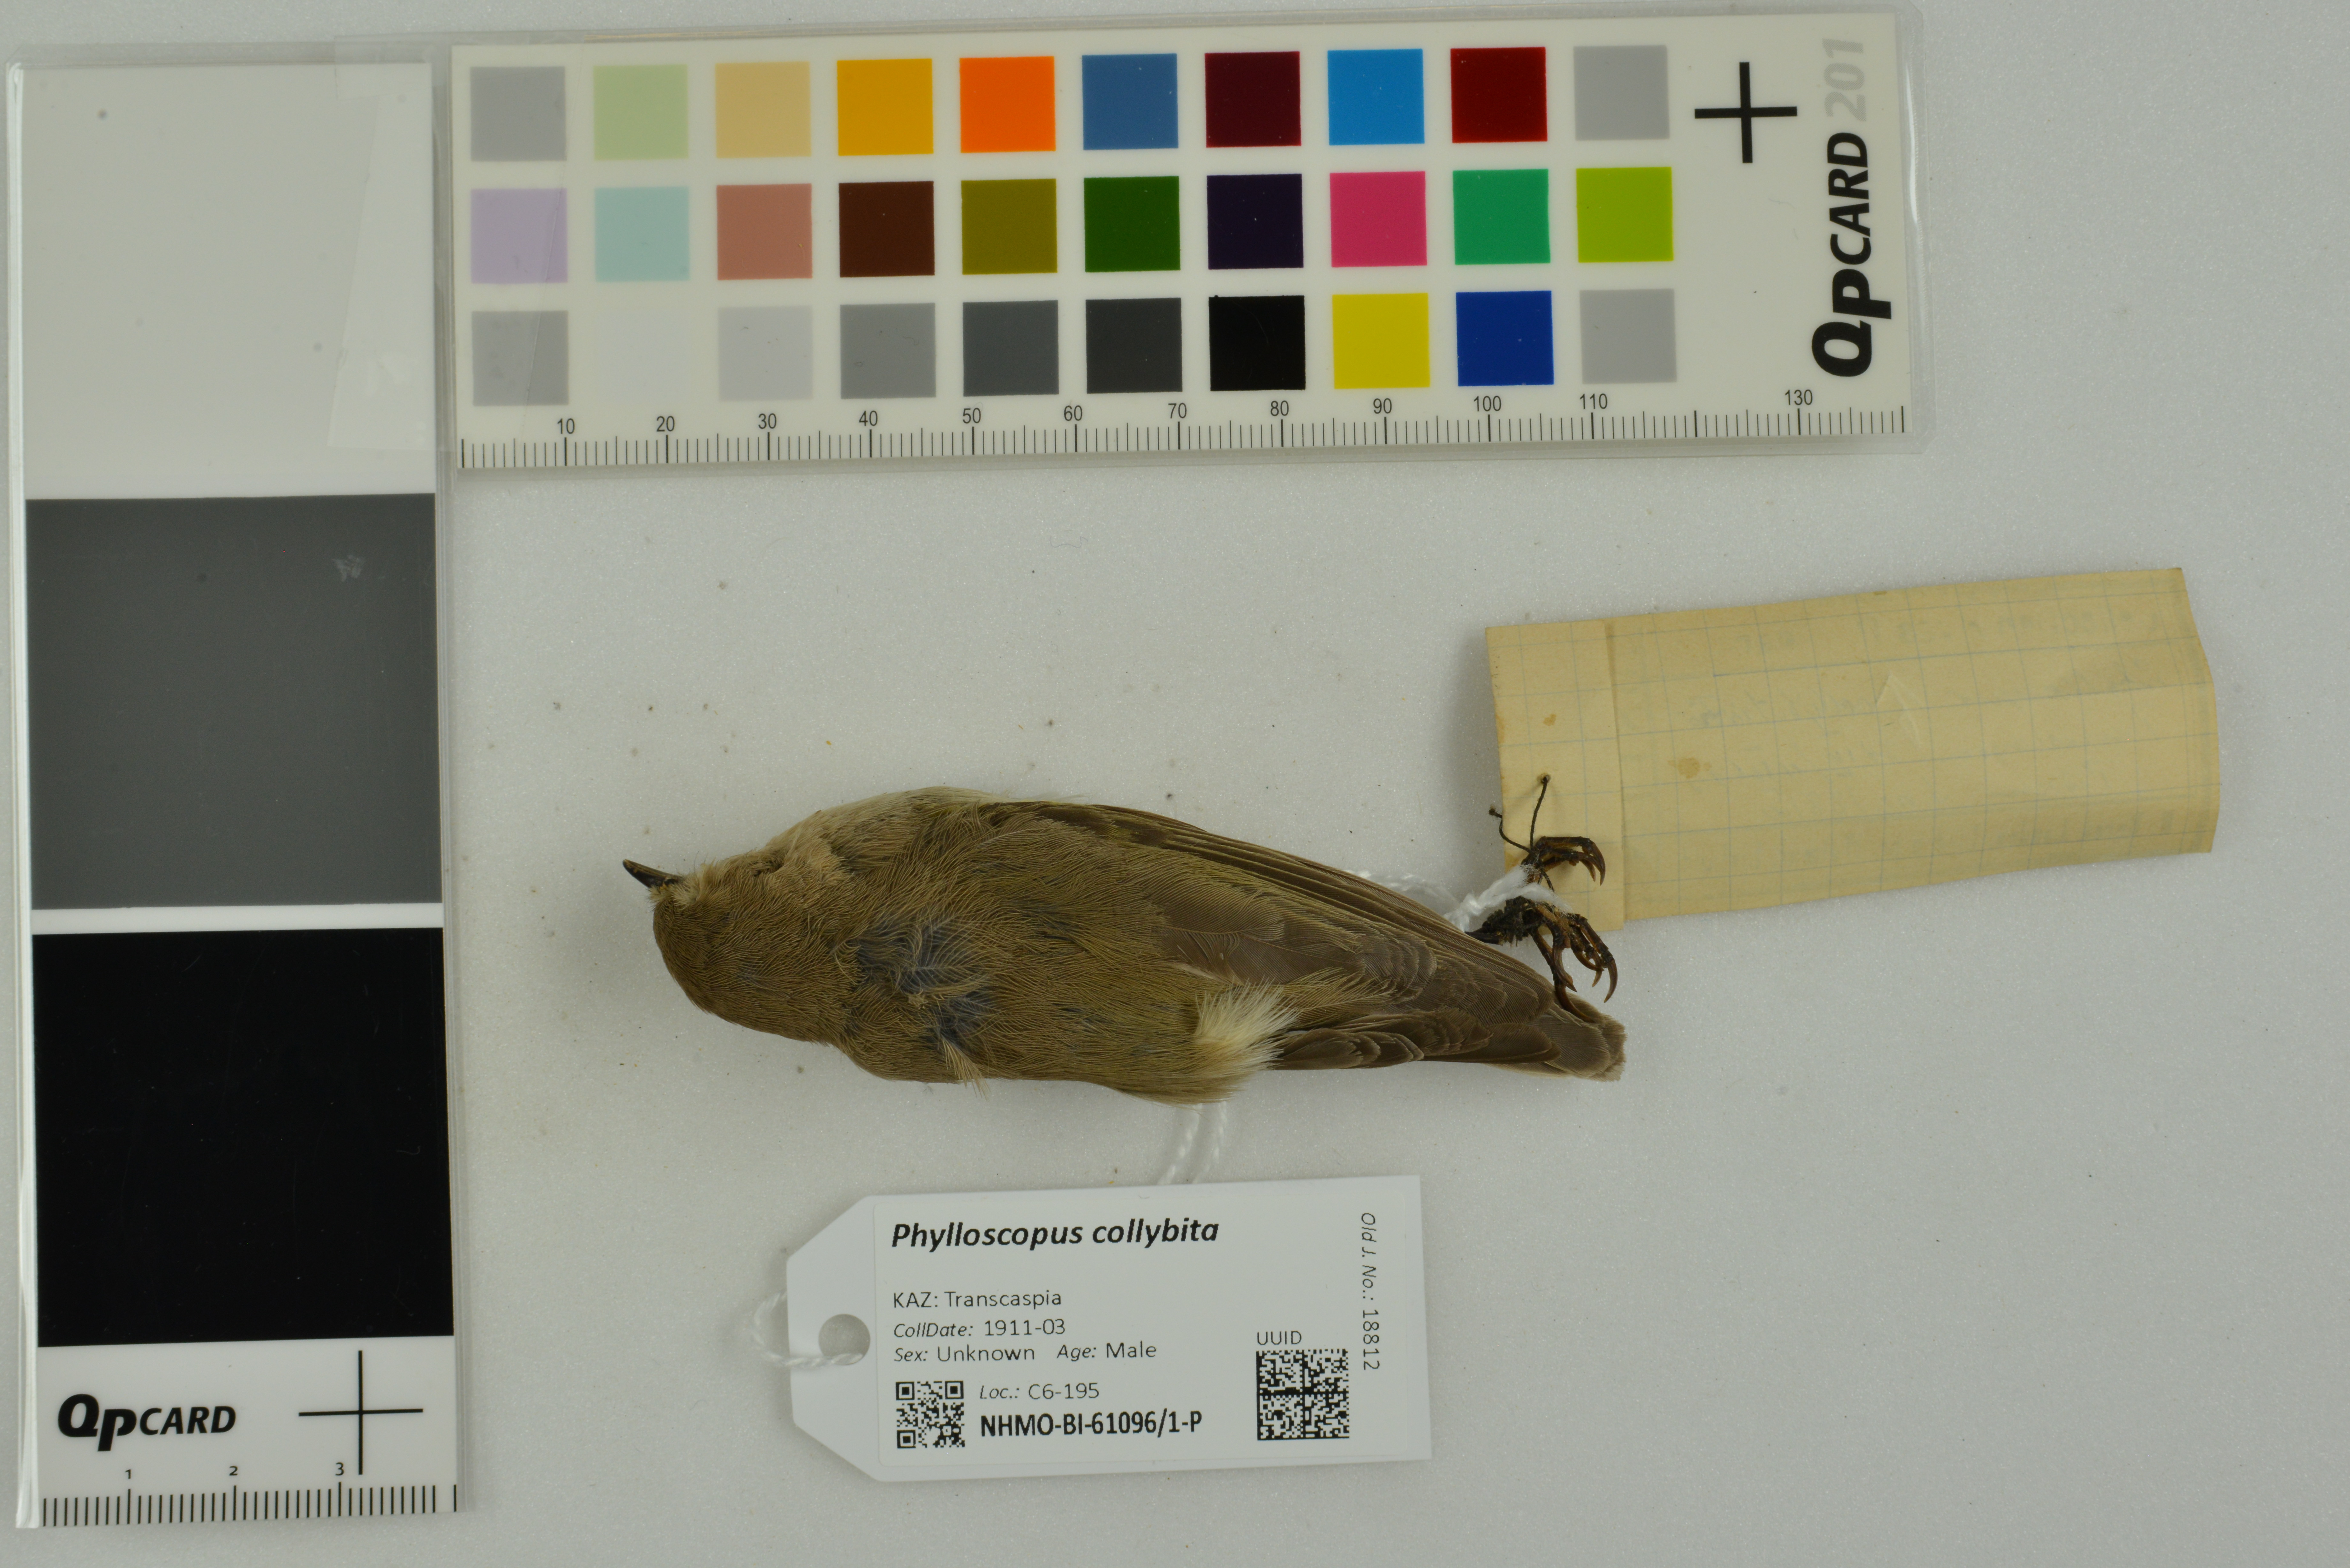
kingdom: Animalia
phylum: Chordata
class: Aves
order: Passeriformes
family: Phylloscopidae
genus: Phylloscopus
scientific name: Phylloscopus collybita
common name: Common chiffchaff
